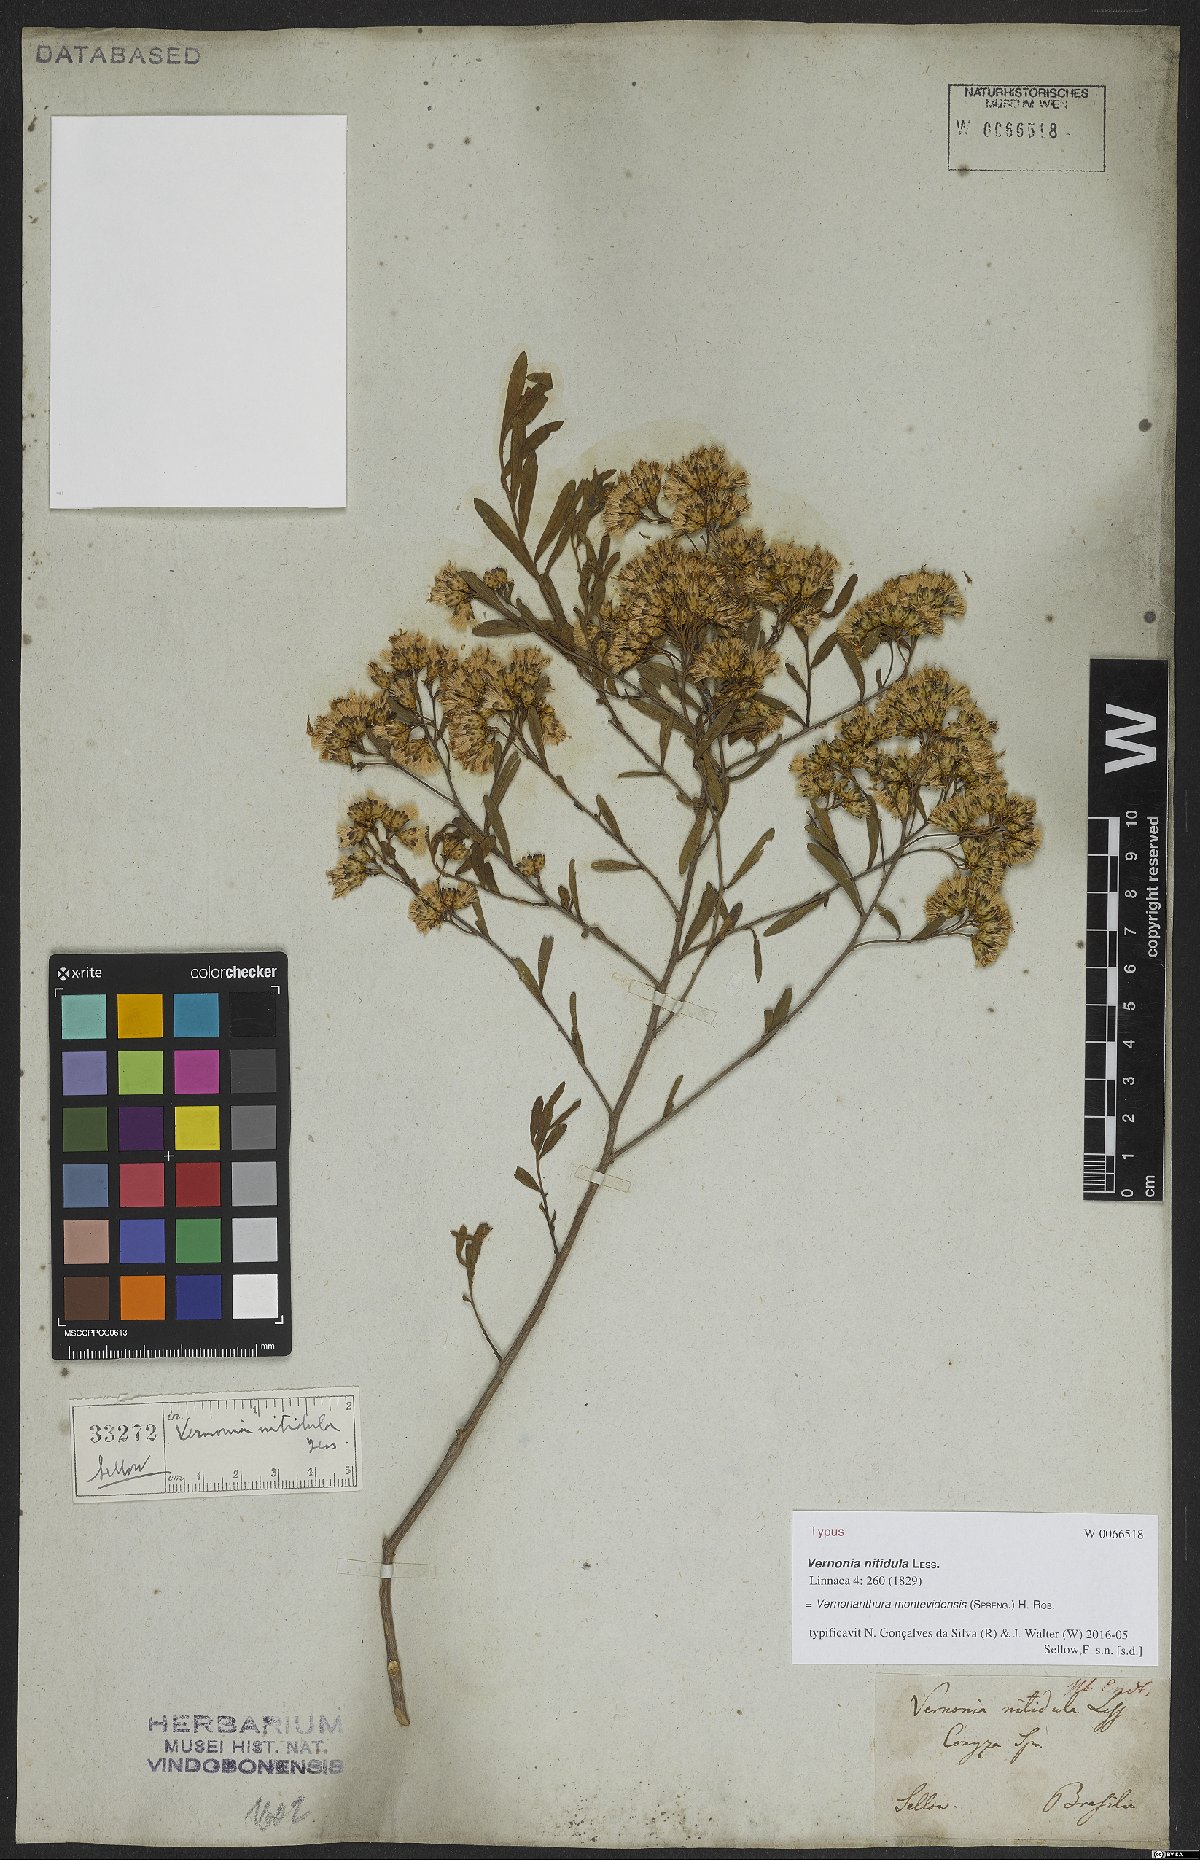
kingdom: Plantae
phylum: Tracheophyta
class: Magnoliopsida
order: Asterales
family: Asteraceae
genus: Vernonanthura
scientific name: Vernonanthura montevidensis
